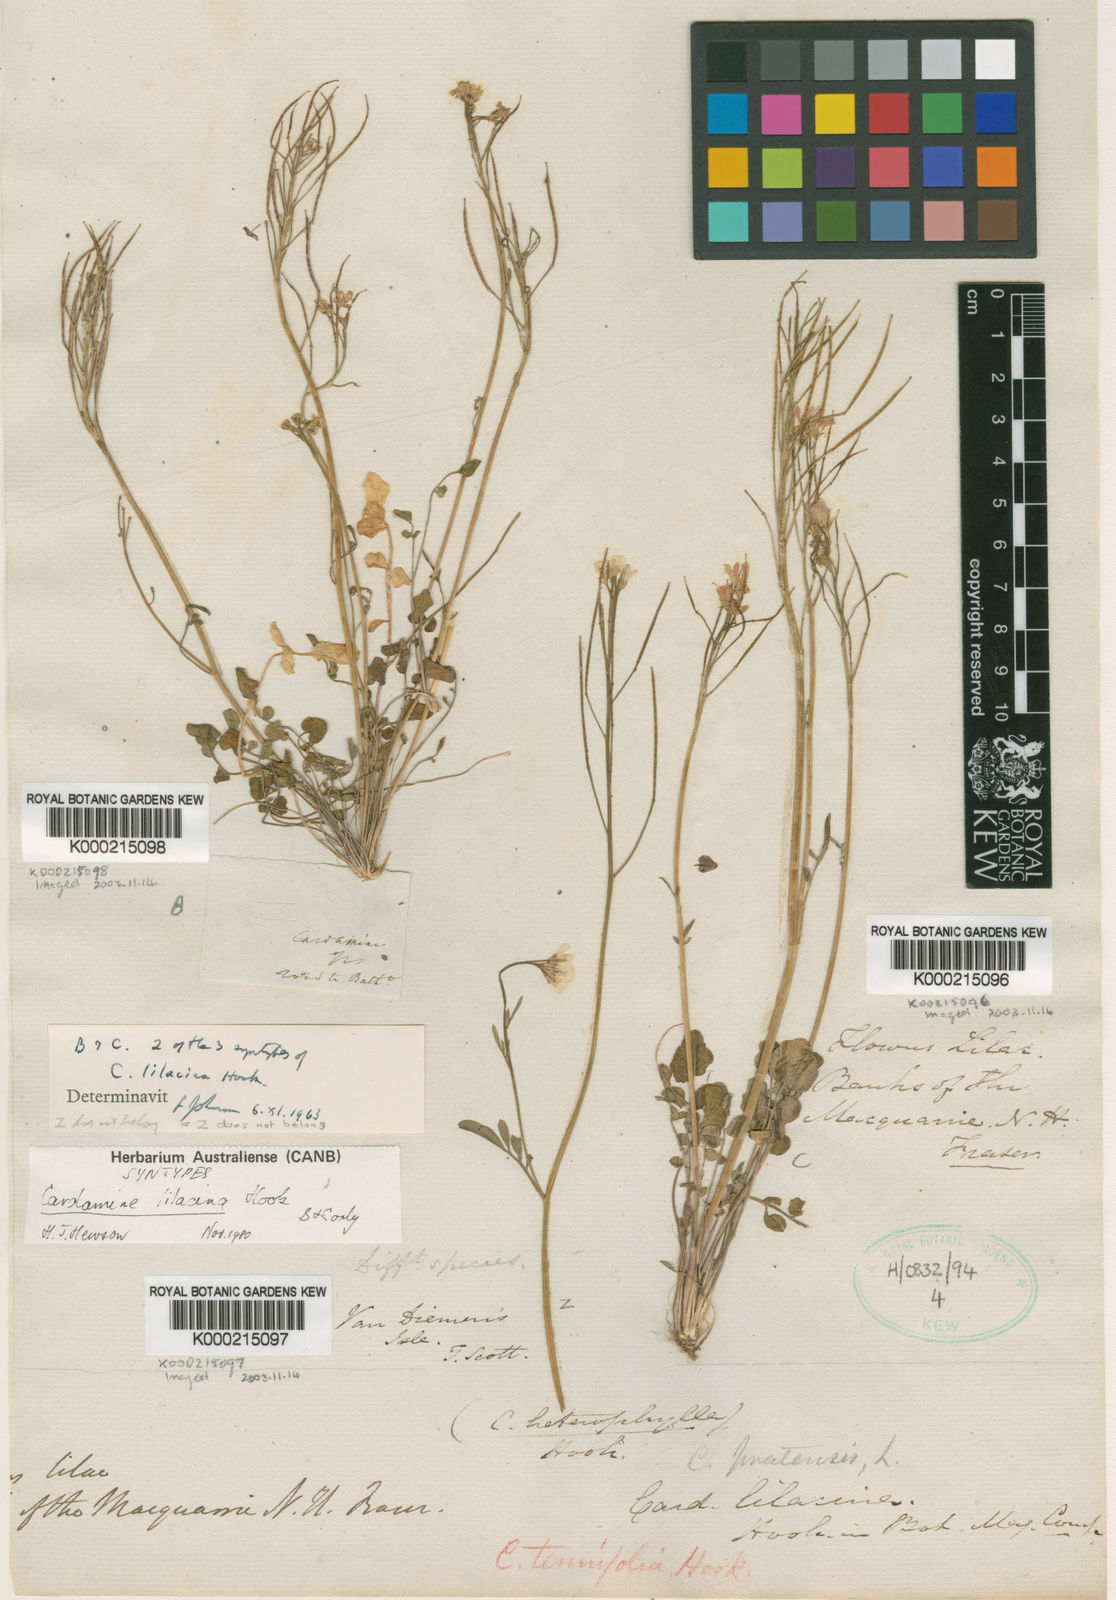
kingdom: Plantae
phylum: Tracheophyta
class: Magnoliopsida
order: Brassicales
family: Brassicaceae
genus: Cardamine
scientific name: Cardamine lilacina
